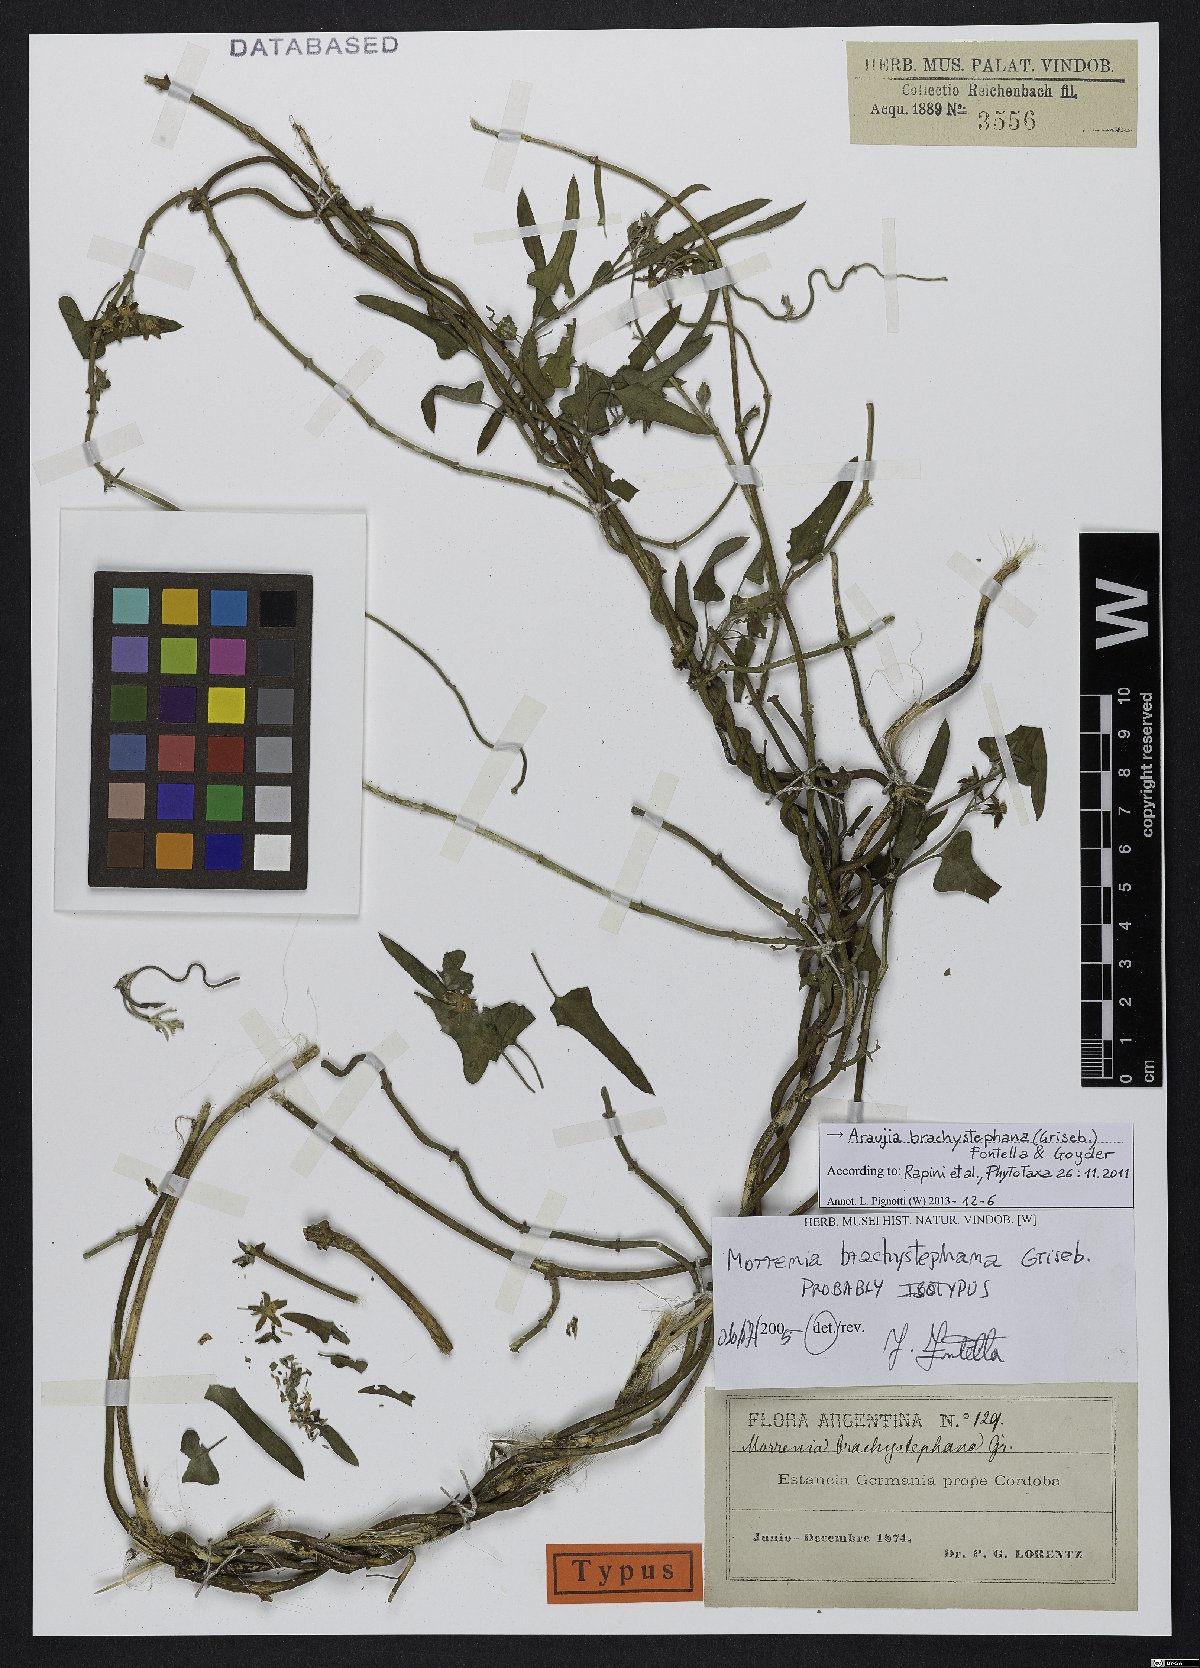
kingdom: Plantae
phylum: Tracheophyta
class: Magnoliopsida
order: Gentianales
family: Apocynaceae
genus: Araujia
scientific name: Araujia brachystephana
